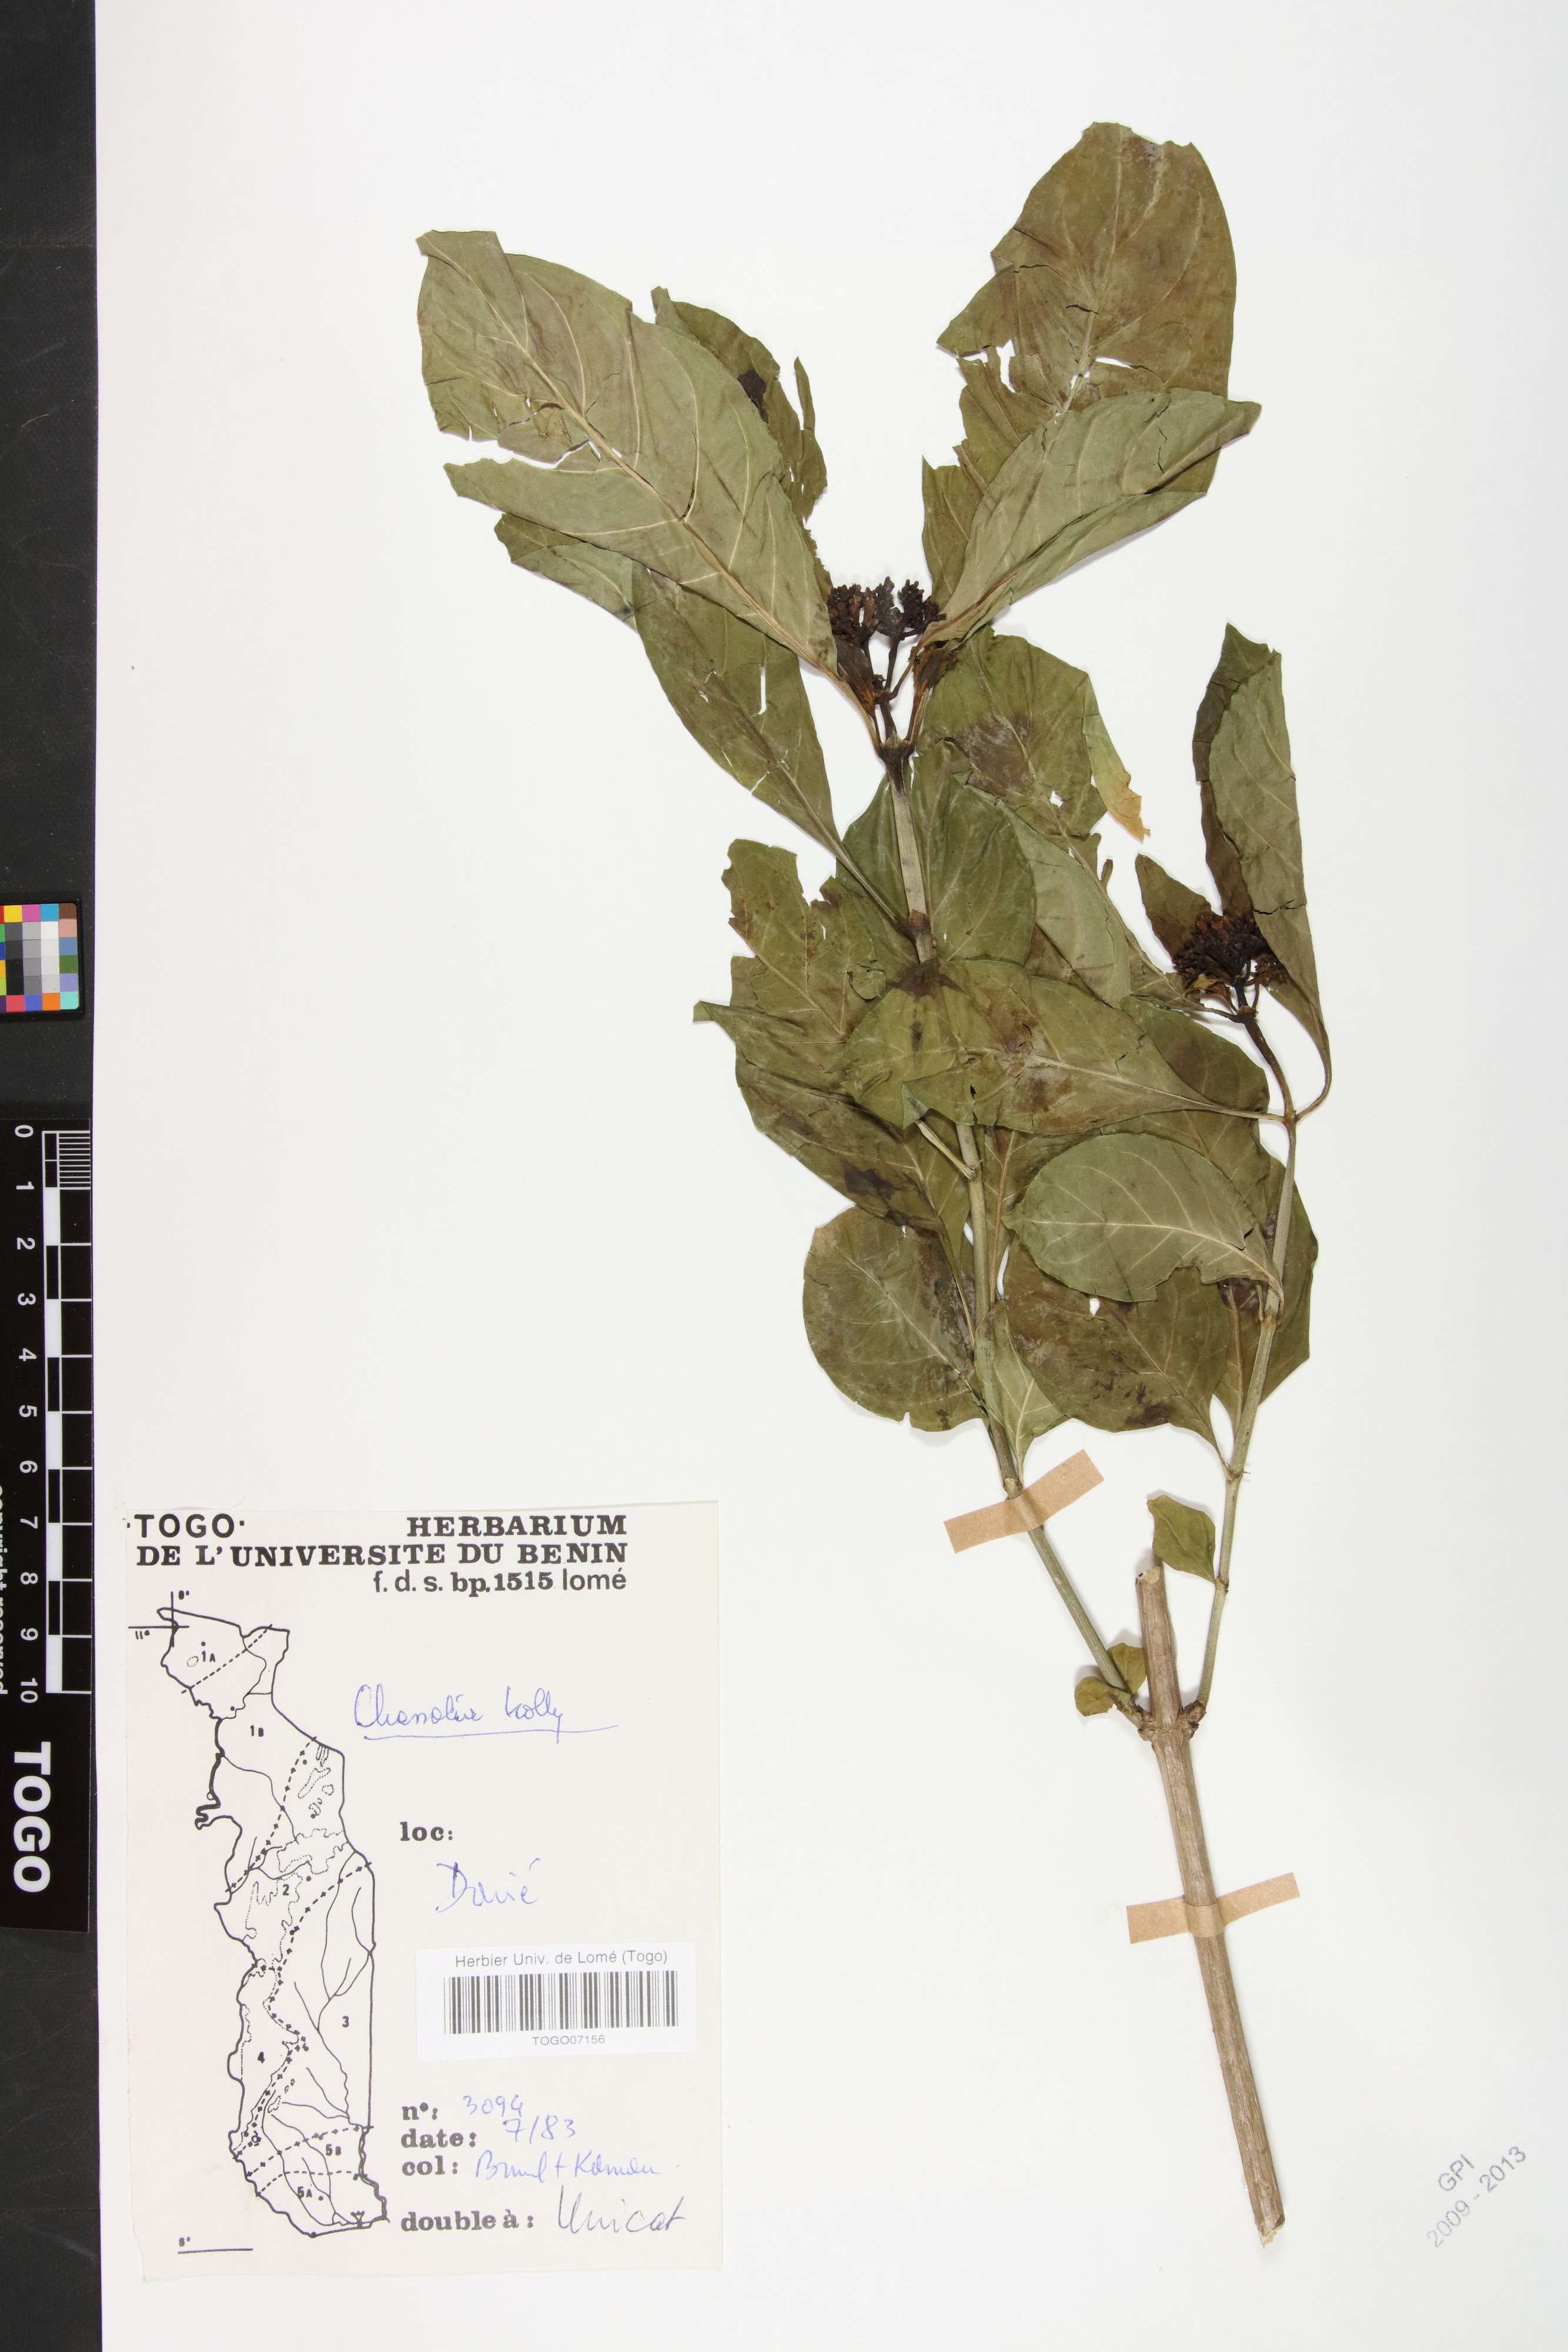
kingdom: Plantae
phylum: Tracheophyta
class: Magnoliopsida
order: Gentianales
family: Rubiaceae
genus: Chassalia
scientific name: Chassalia kolly
